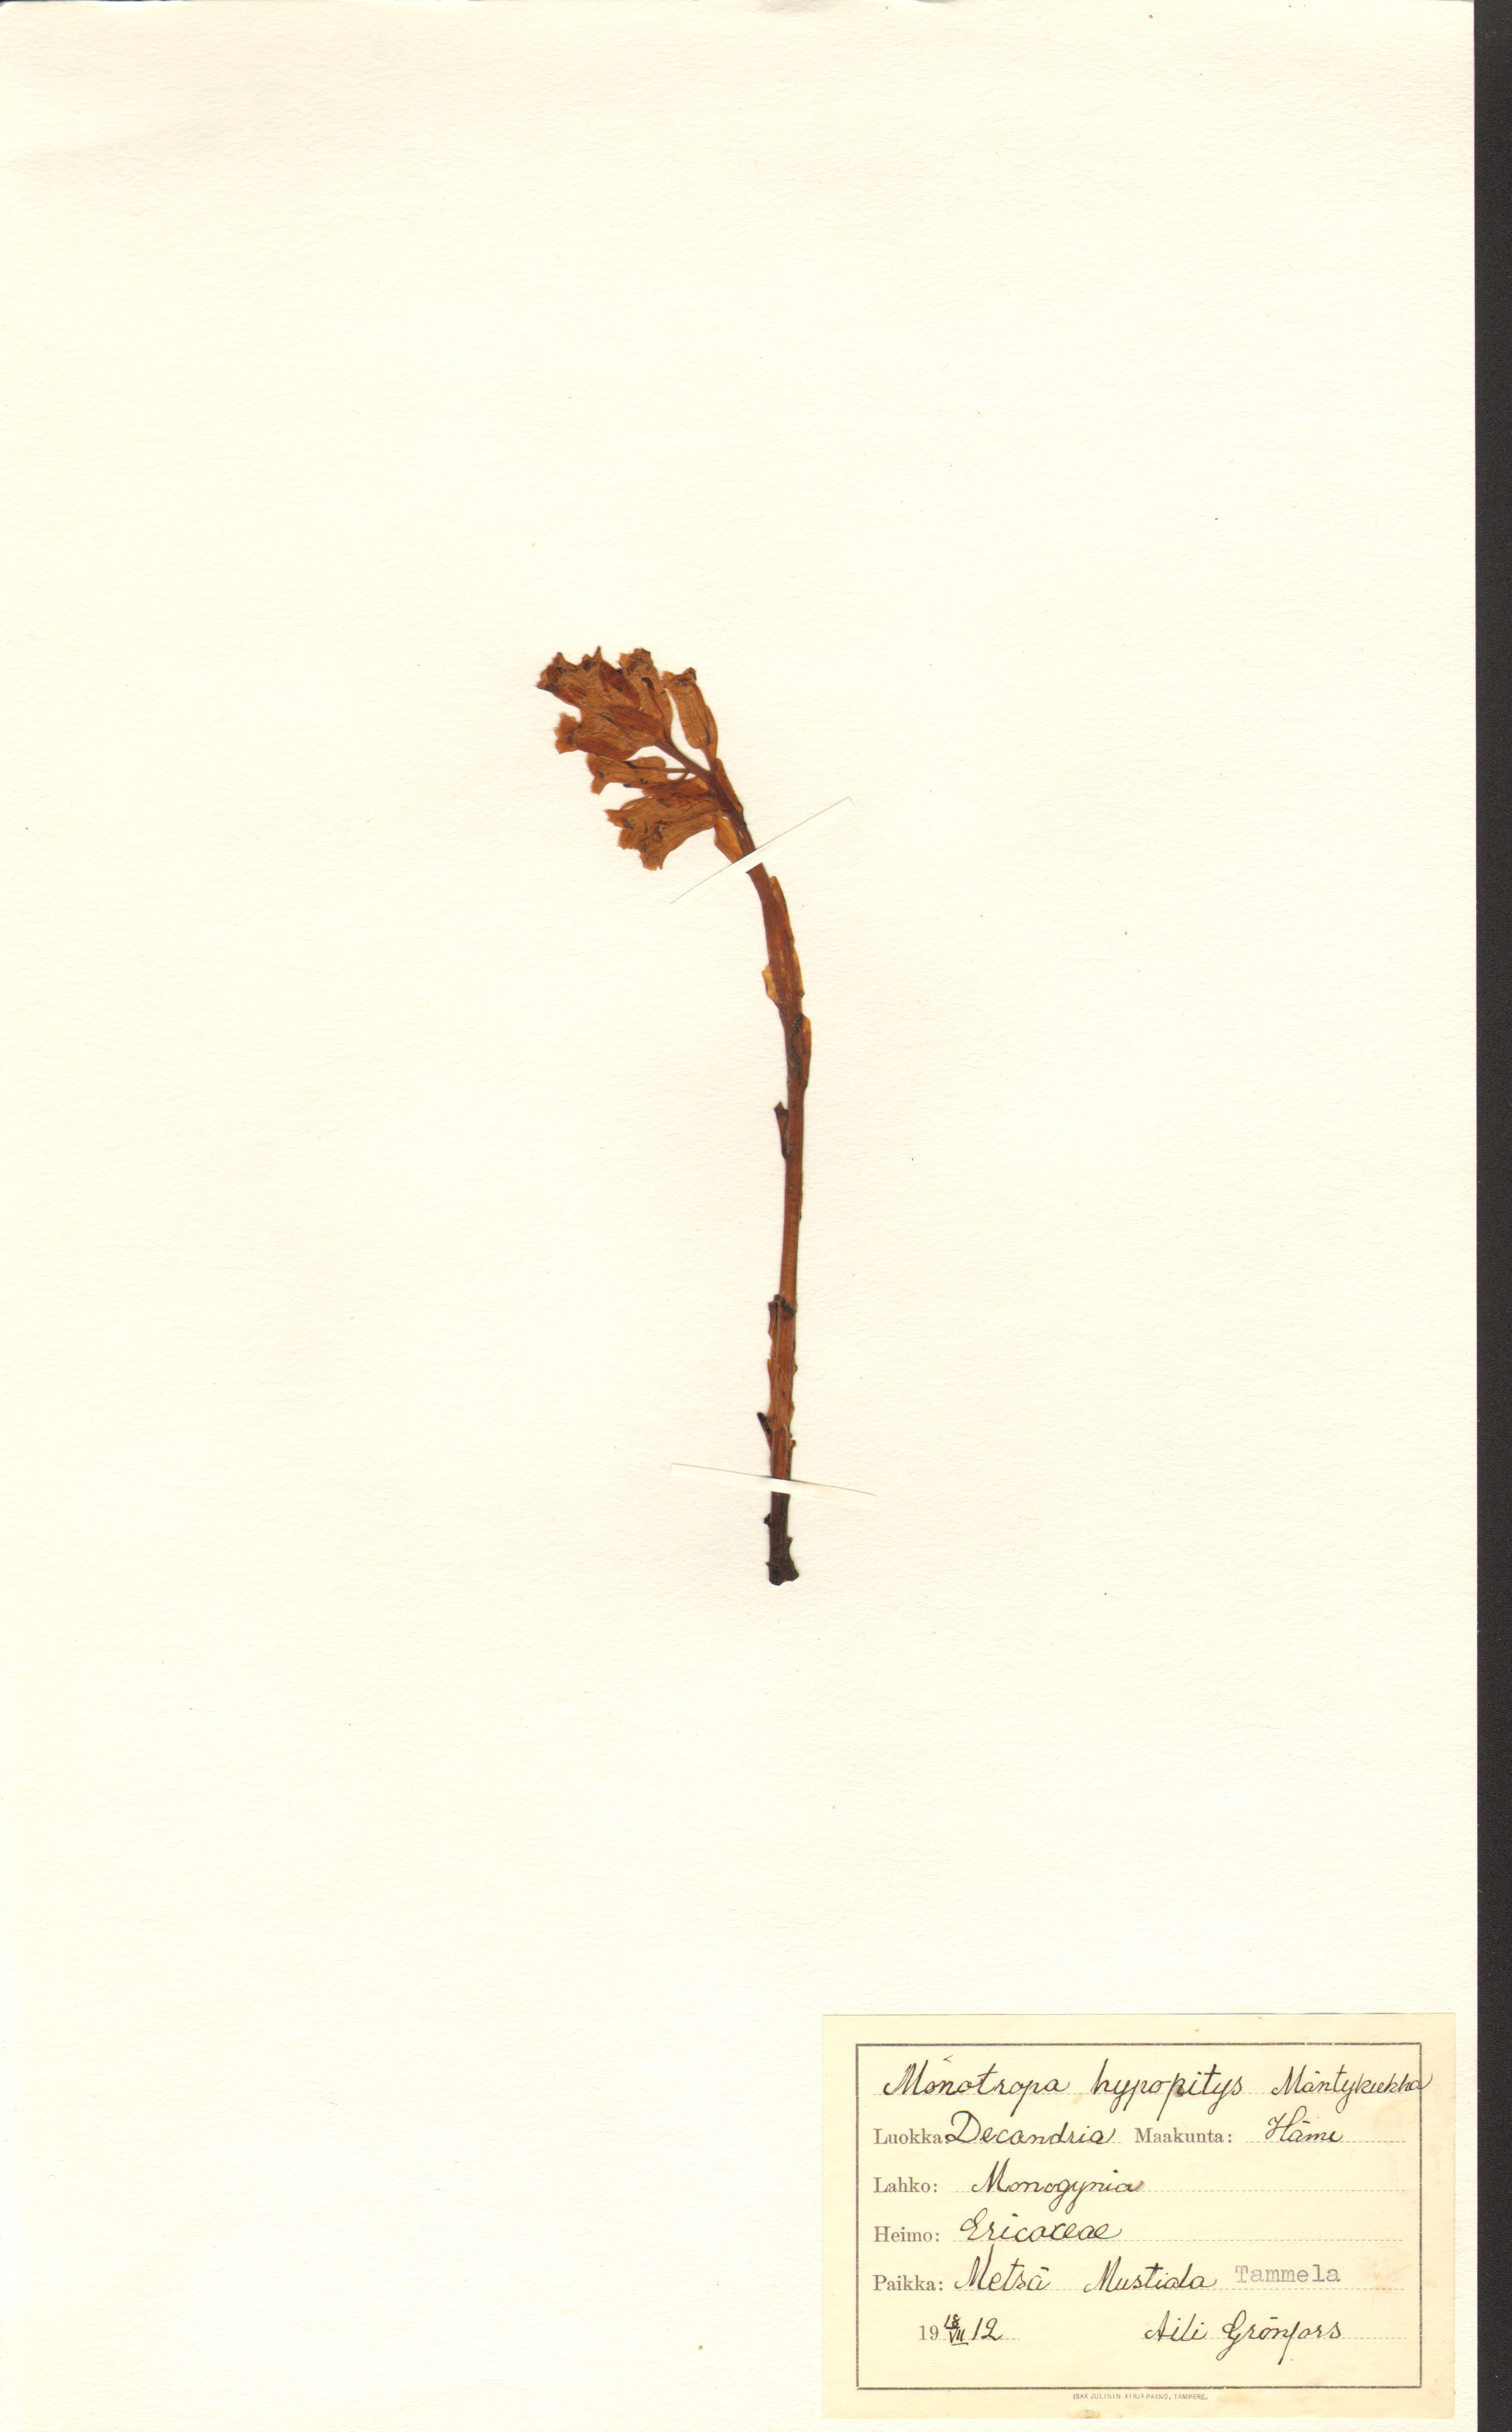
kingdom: Plantae
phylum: Tracheophyta
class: Magnoliopsida
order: Ericales
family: Ericaceae
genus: Hypopitys
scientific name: Hypopitys monotropa
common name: Yellow bird's-nest
